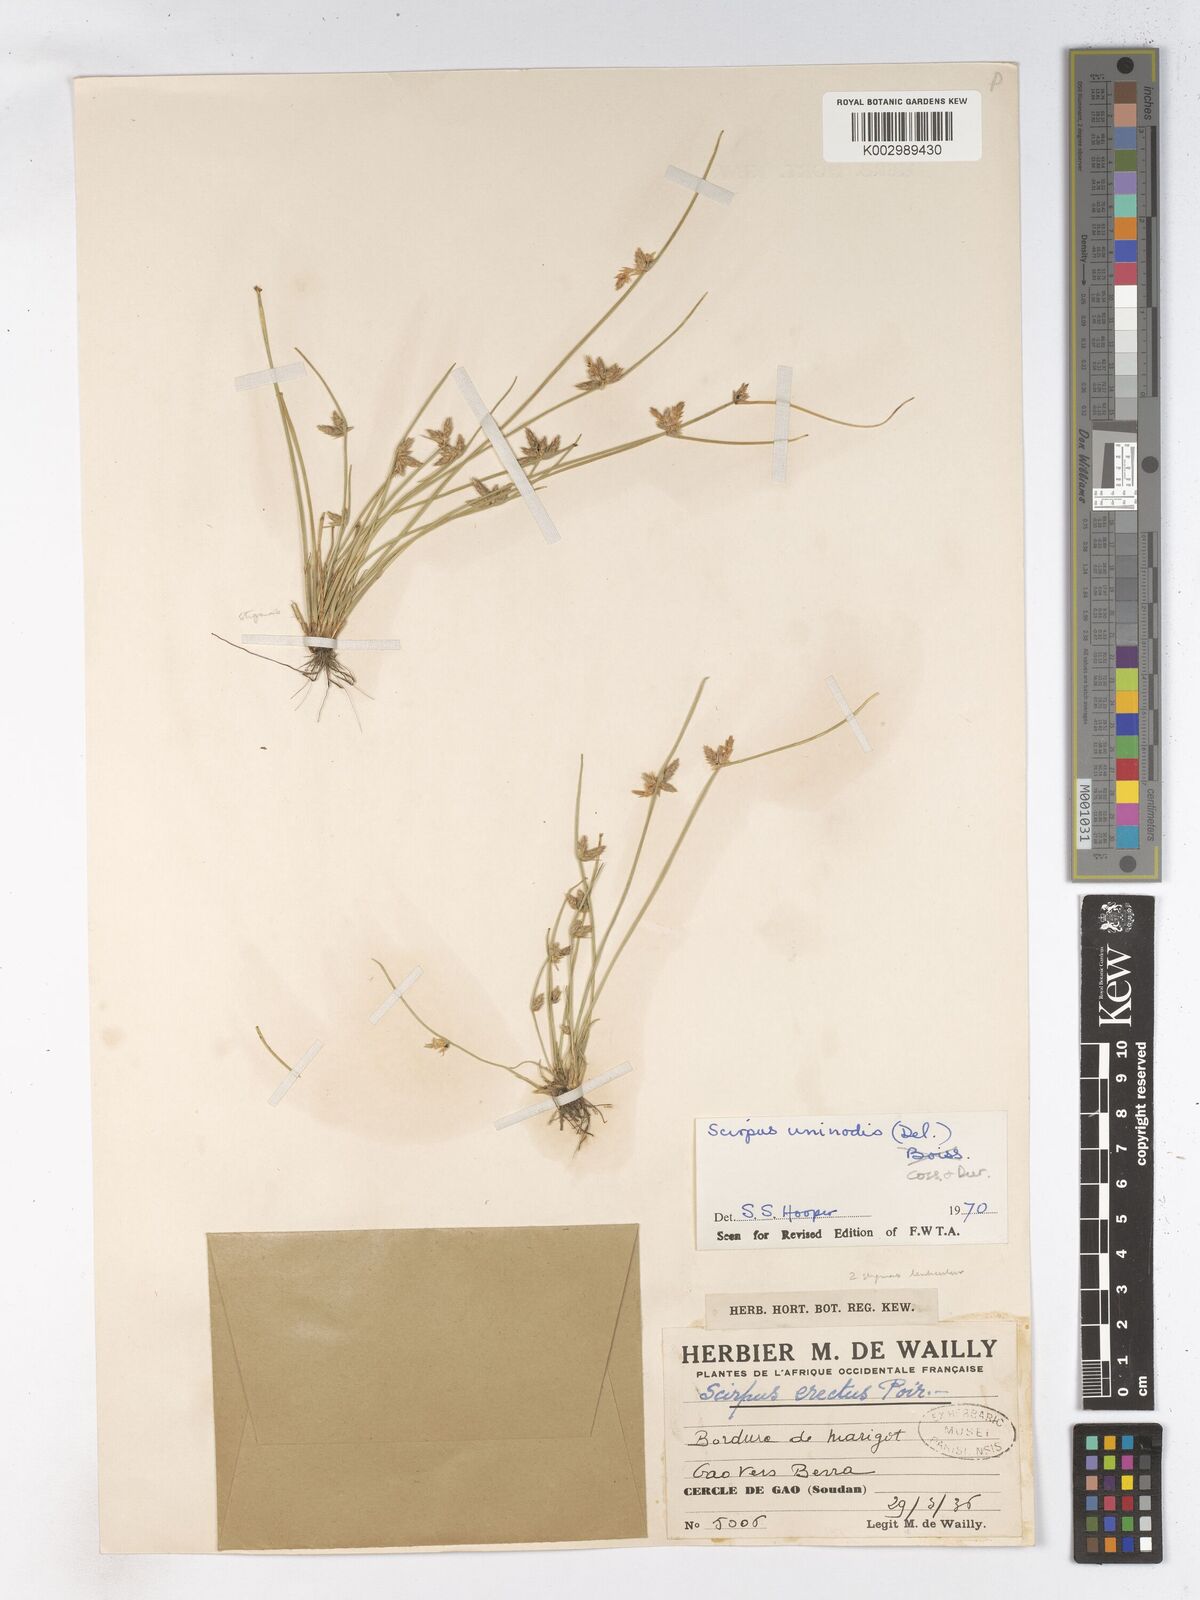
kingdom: Plantae
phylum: Tracheophyta
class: Liliopsida
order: Poales
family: Cyperaceae
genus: Schoenoplectus
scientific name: Schoenoplectus
